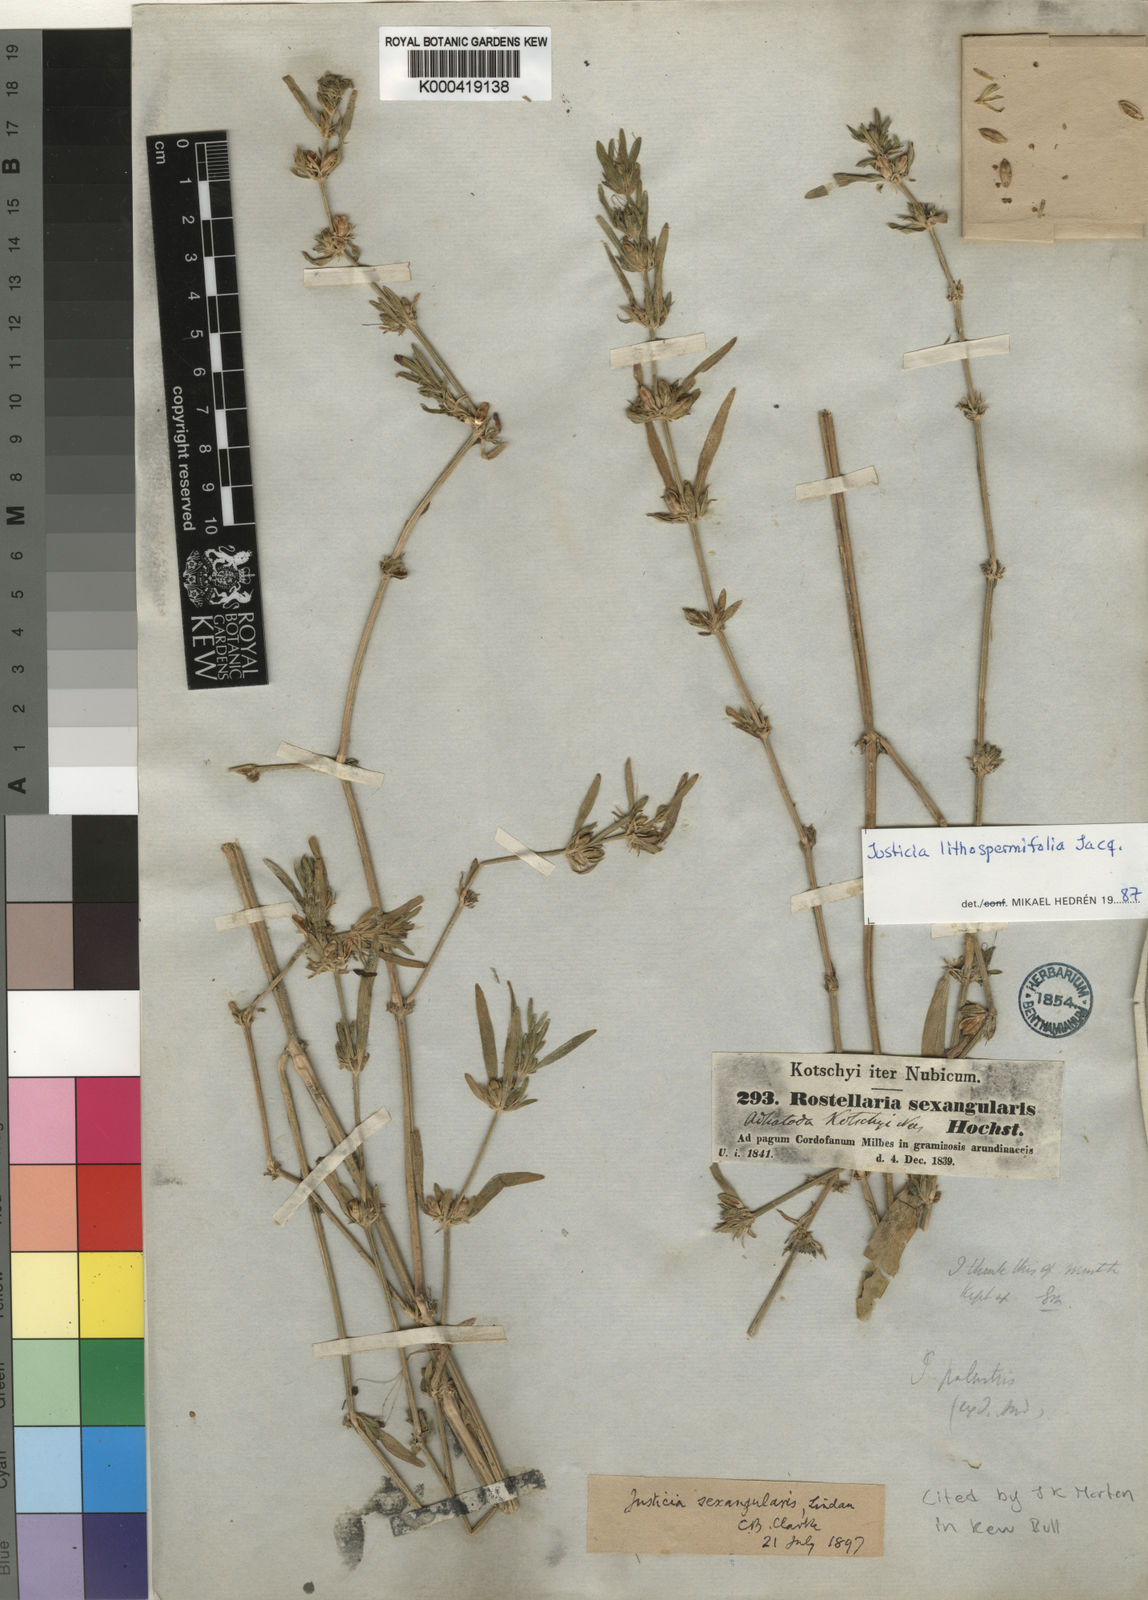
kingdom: Plantae
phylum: Tracheophyta
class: Magnoliopsida
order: Lamiales
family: Acanthaceae
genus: Justicia
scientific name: Justicia flava
